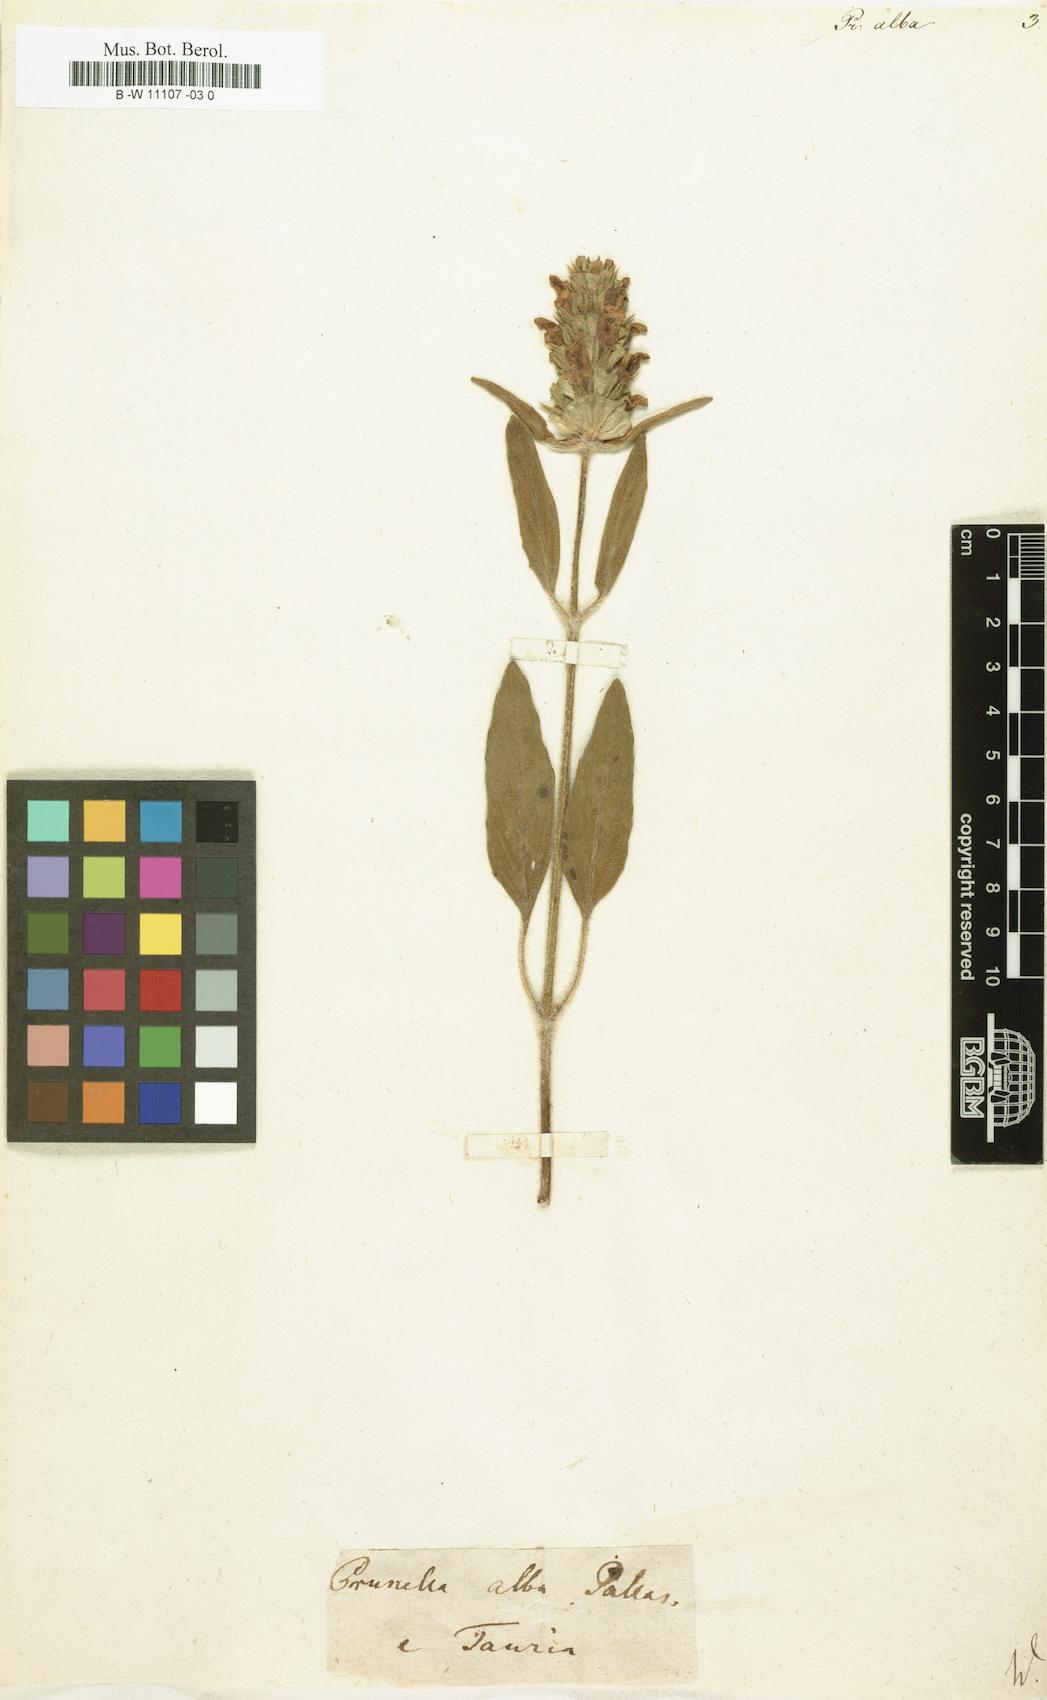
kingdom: Plantae
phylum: Tracheophyta
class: Magnoliopsida
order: Lamiales
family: Lamiaceae
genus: Prunella
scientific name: Prunella laciniata
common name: Cut-leaved selfheal
